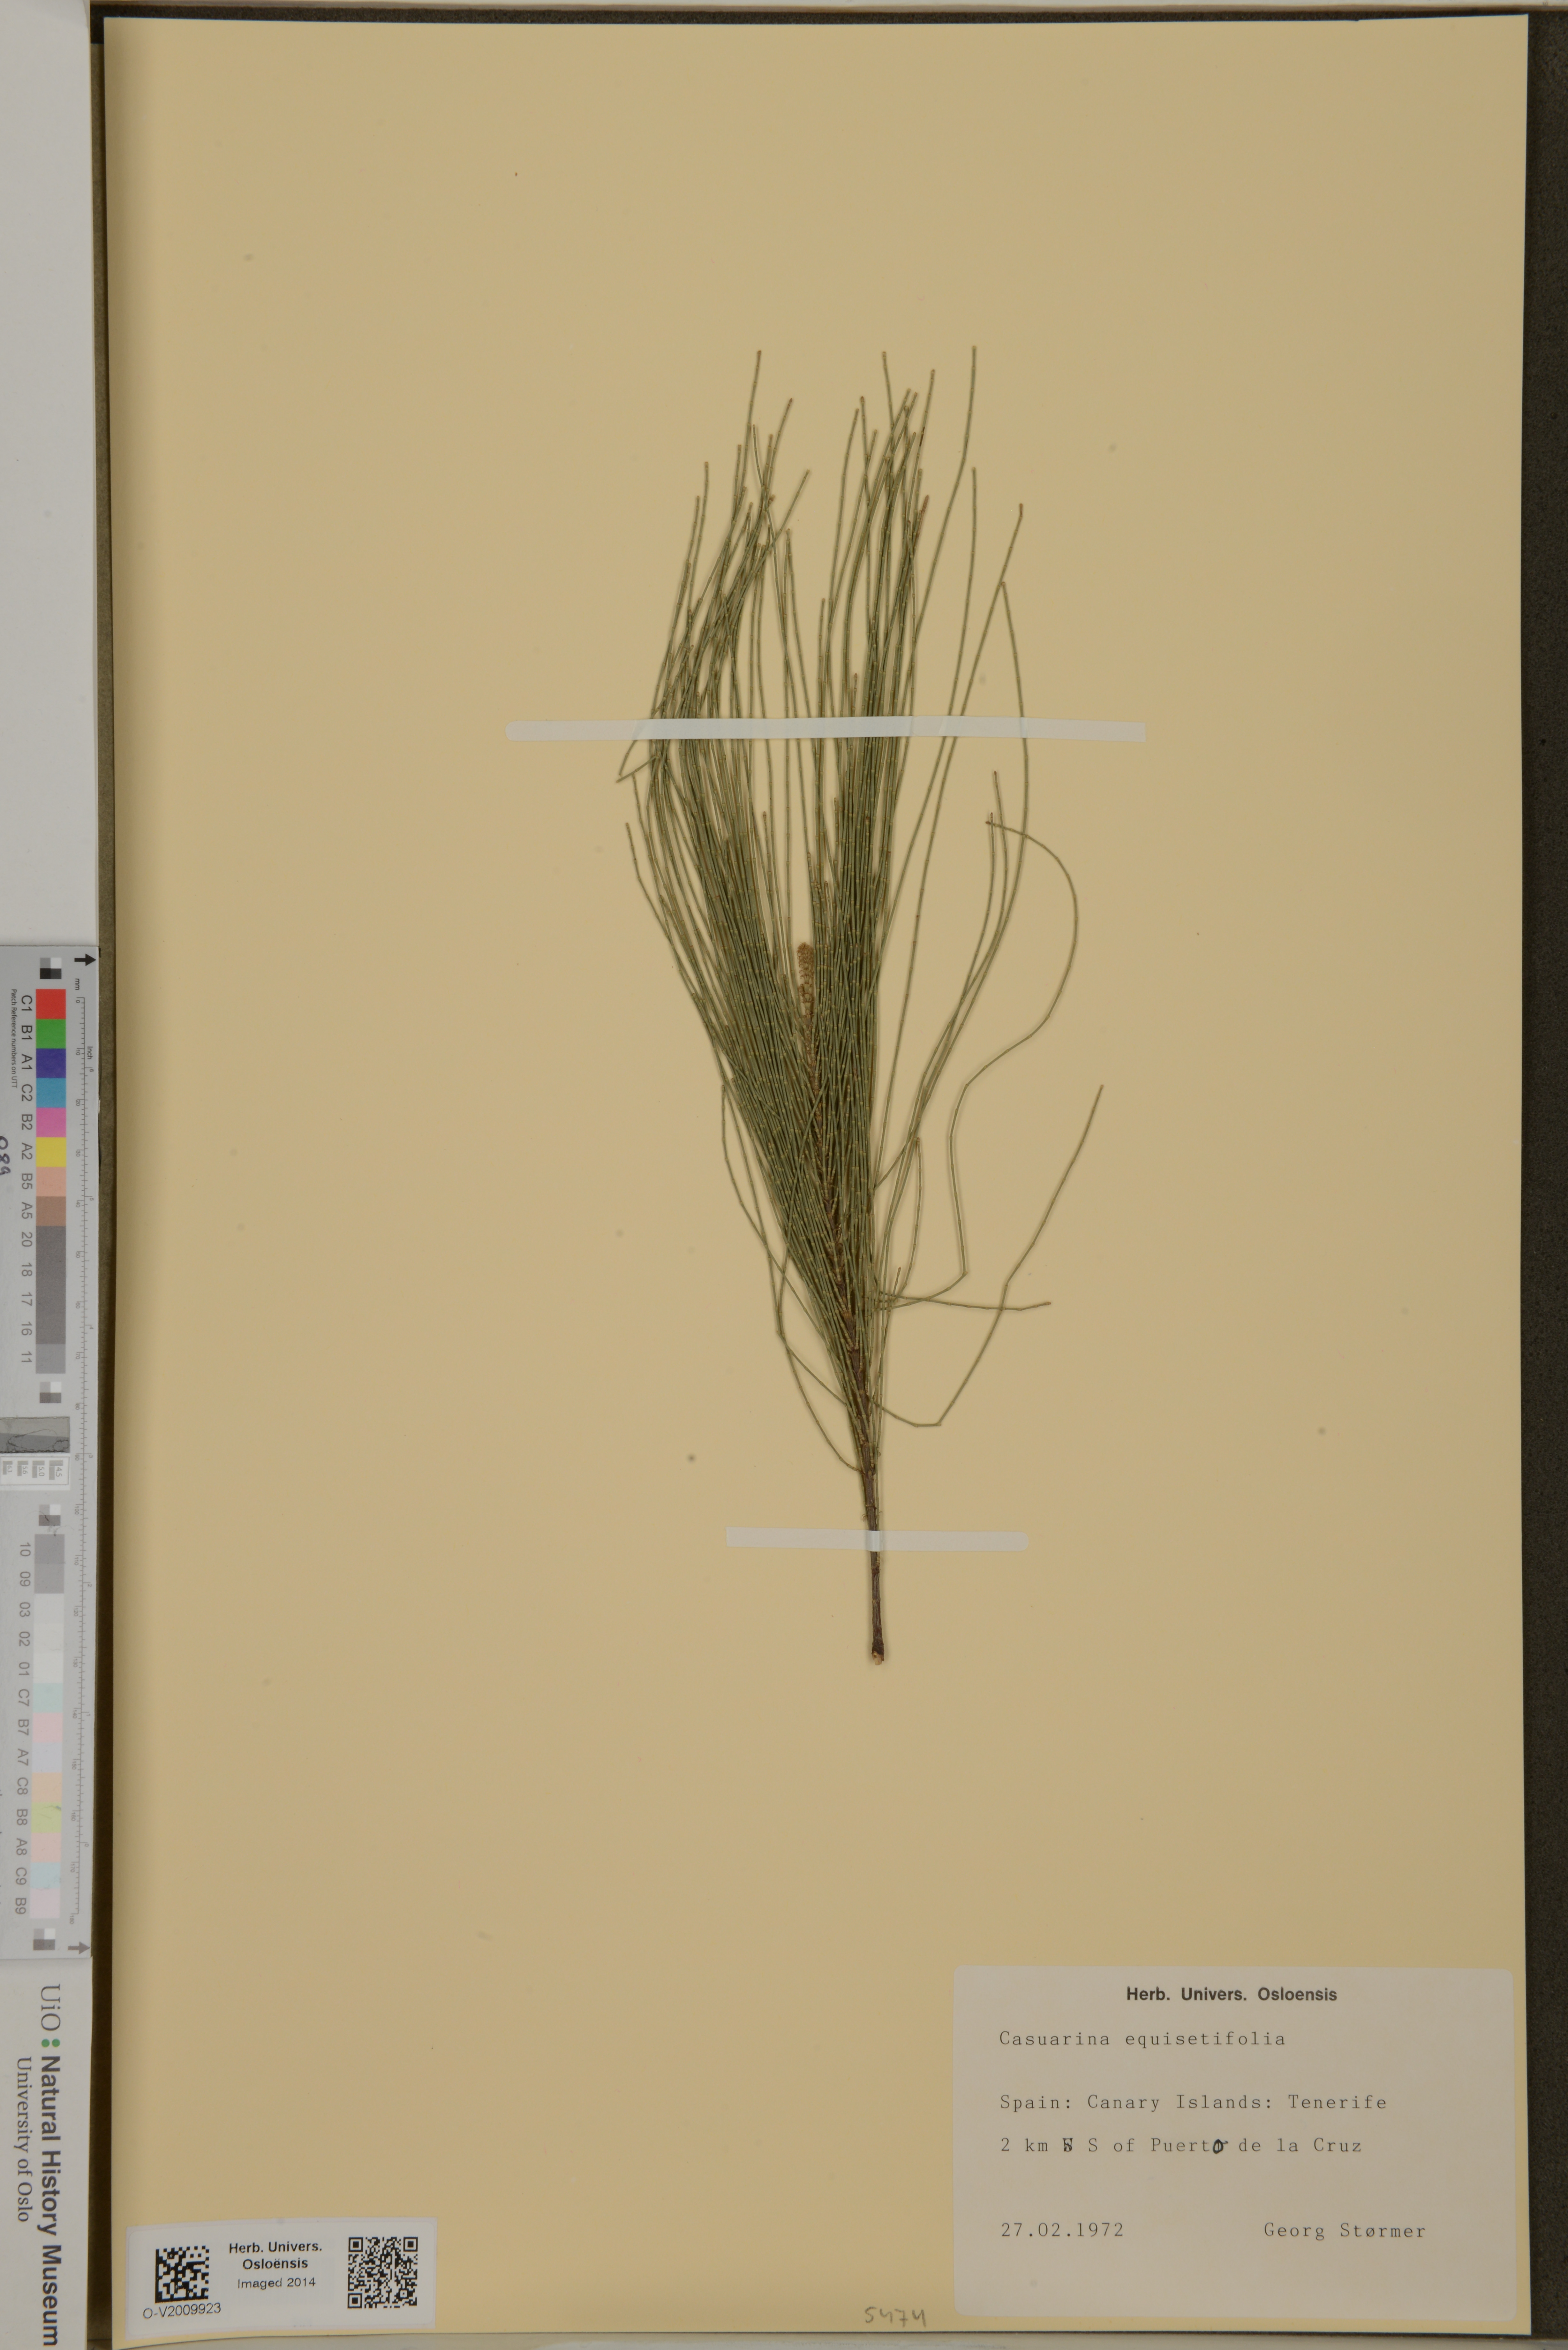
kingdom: Plantae
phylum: Tracheophyta
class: Magnoliopsida
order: Fagales
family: Casuarinaceae
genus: Casuarina
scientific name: Casuarina equisetifolia
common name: Beach sheoak
